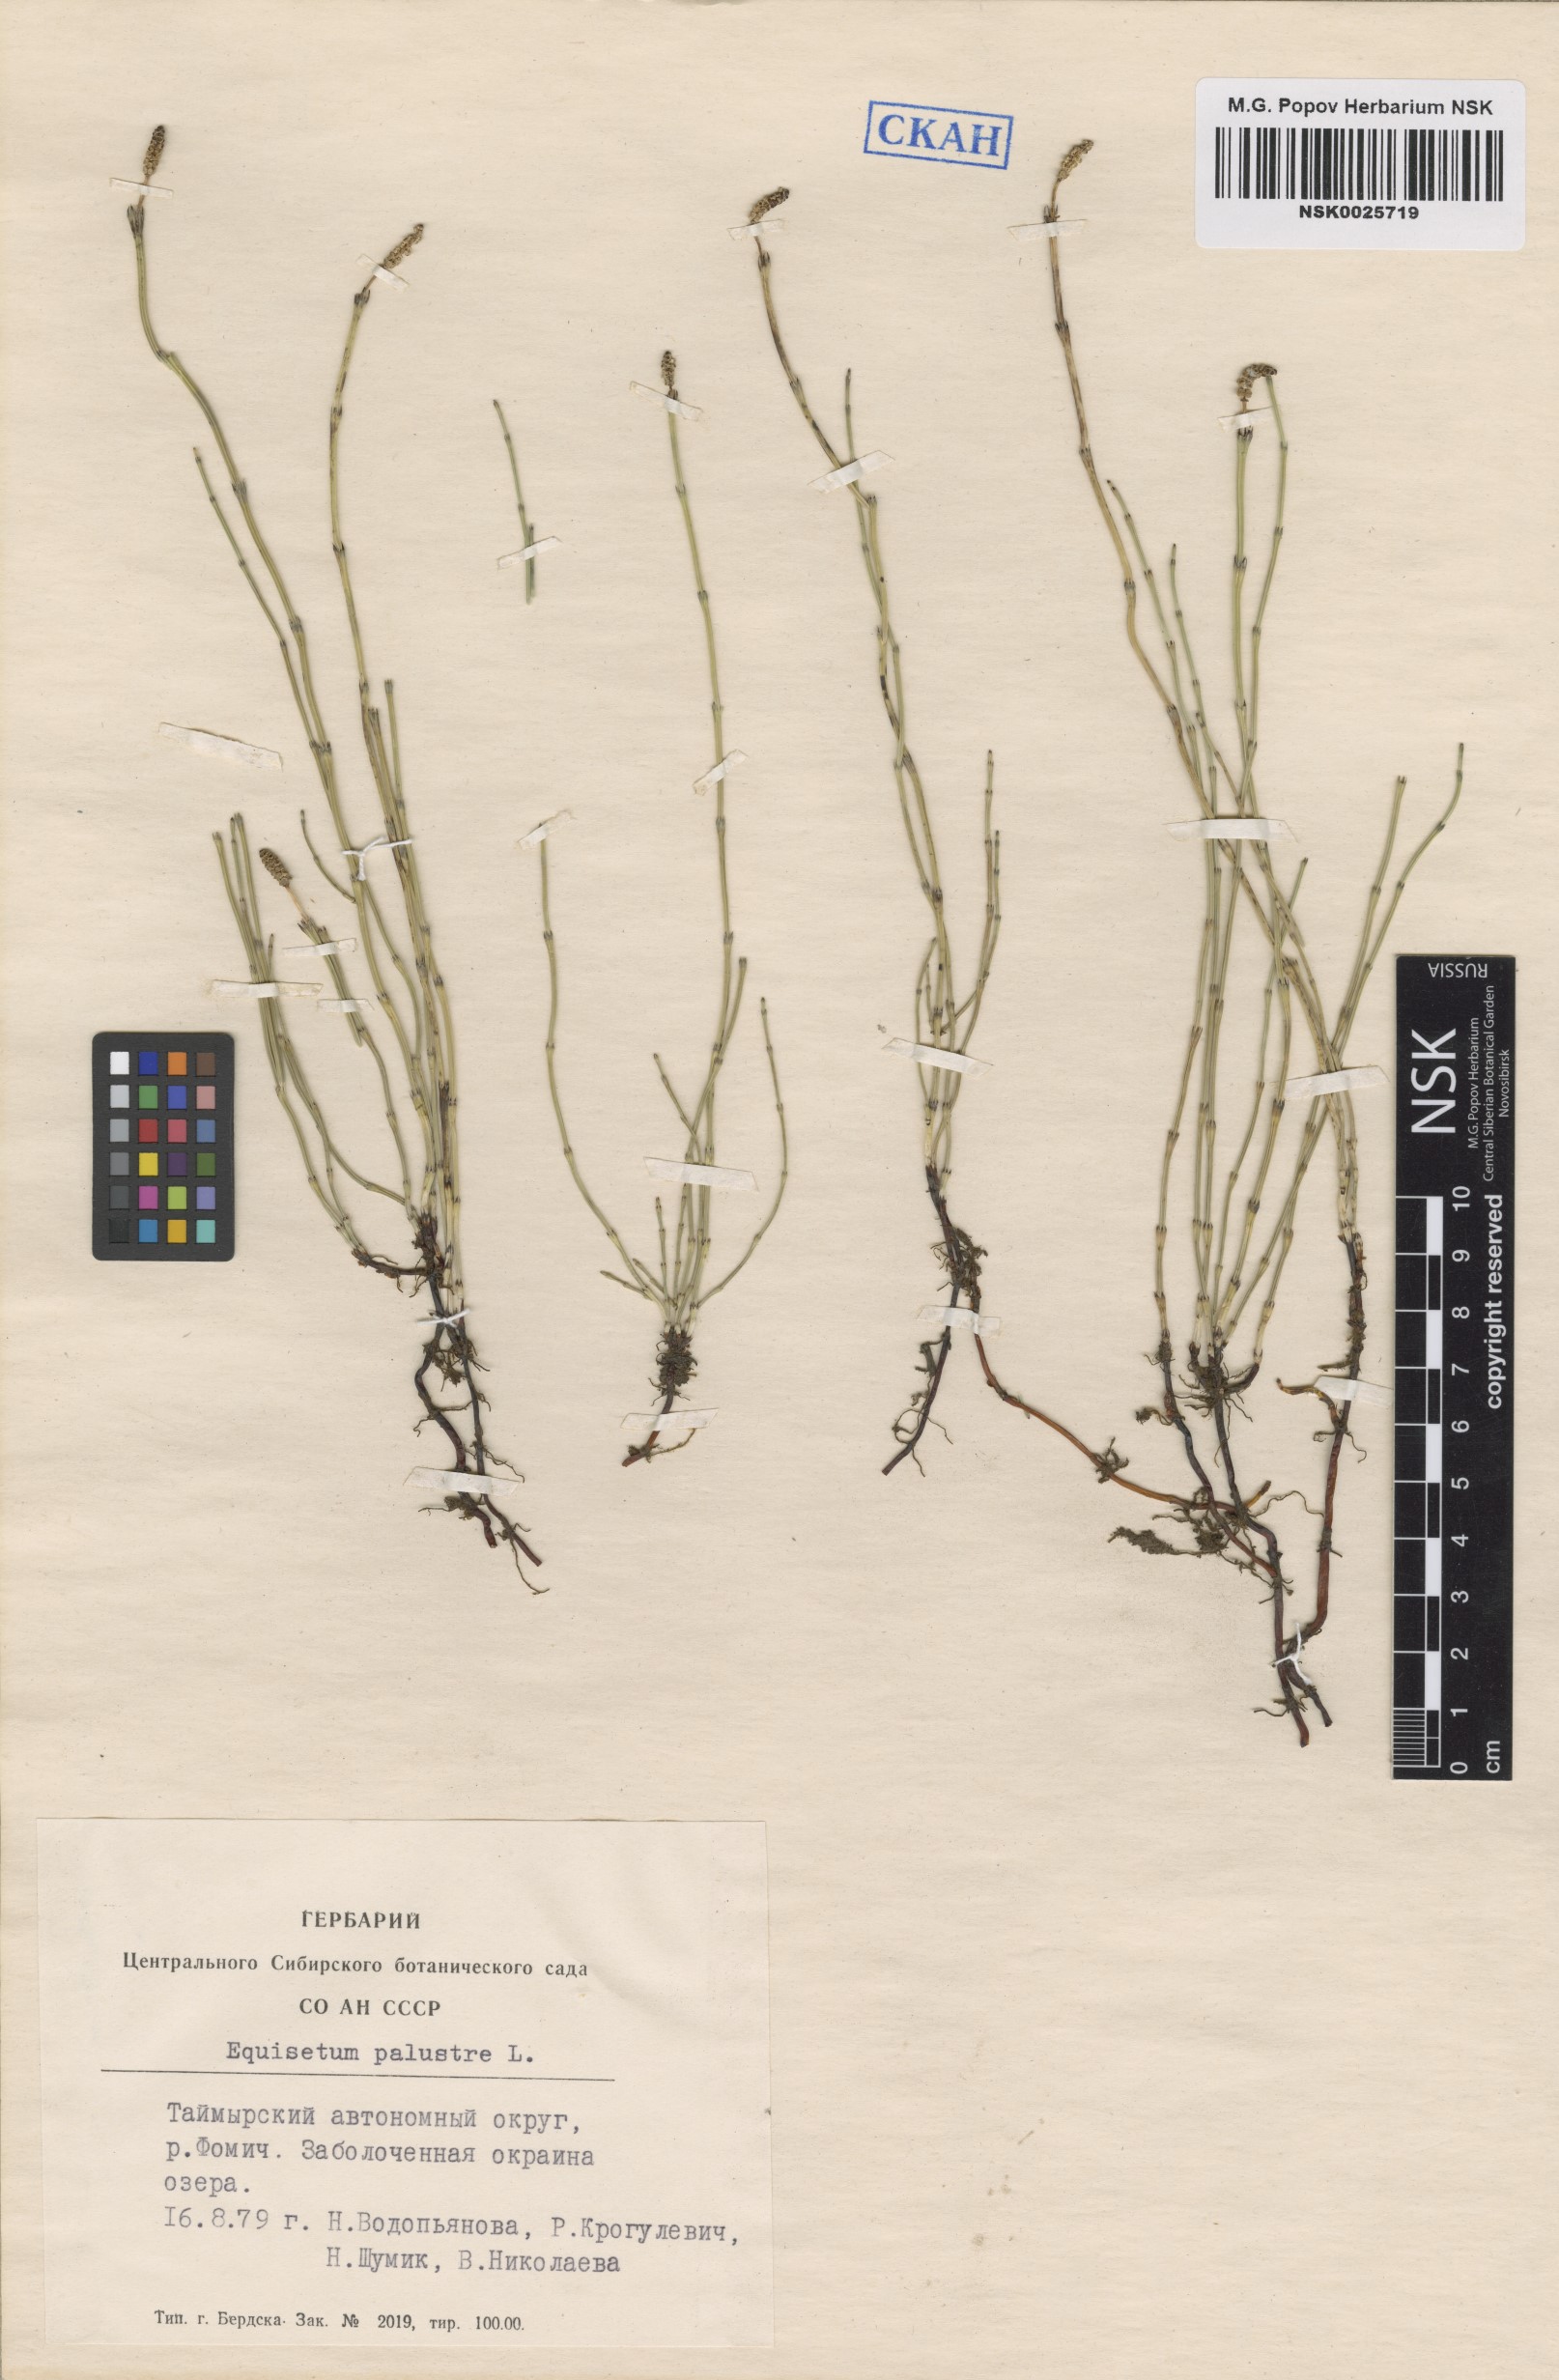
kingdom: Plantae
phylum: Tracheophyta
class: Polypodiopsida
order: Equisetales
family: Equisetaceae
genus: Equisetum
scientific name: Equisetum palustre
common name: Marsh horsetail
